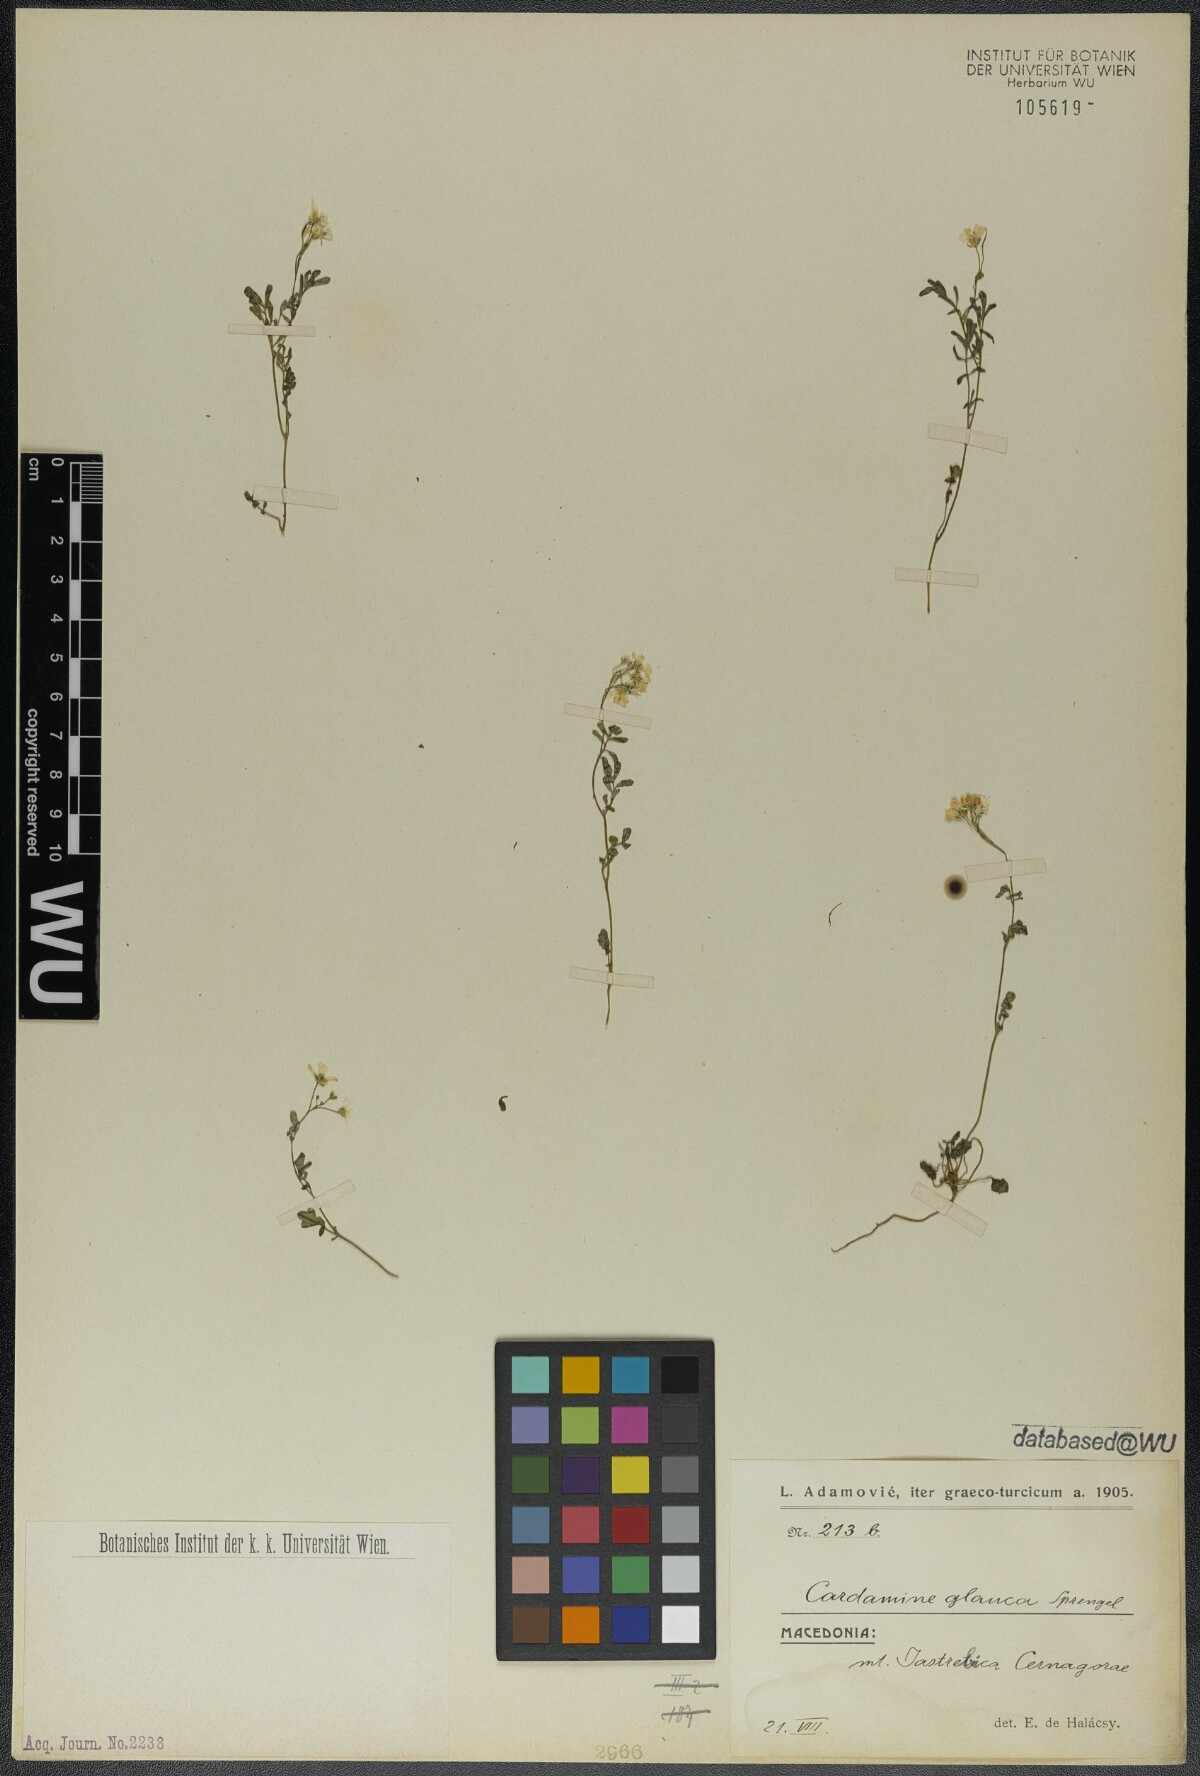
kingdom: Plantae
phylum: Tracheophyta
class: Magnoliopsida
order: Brassicales
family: Brassicaceae
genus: Cardamine
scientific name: Cardamine glauca
